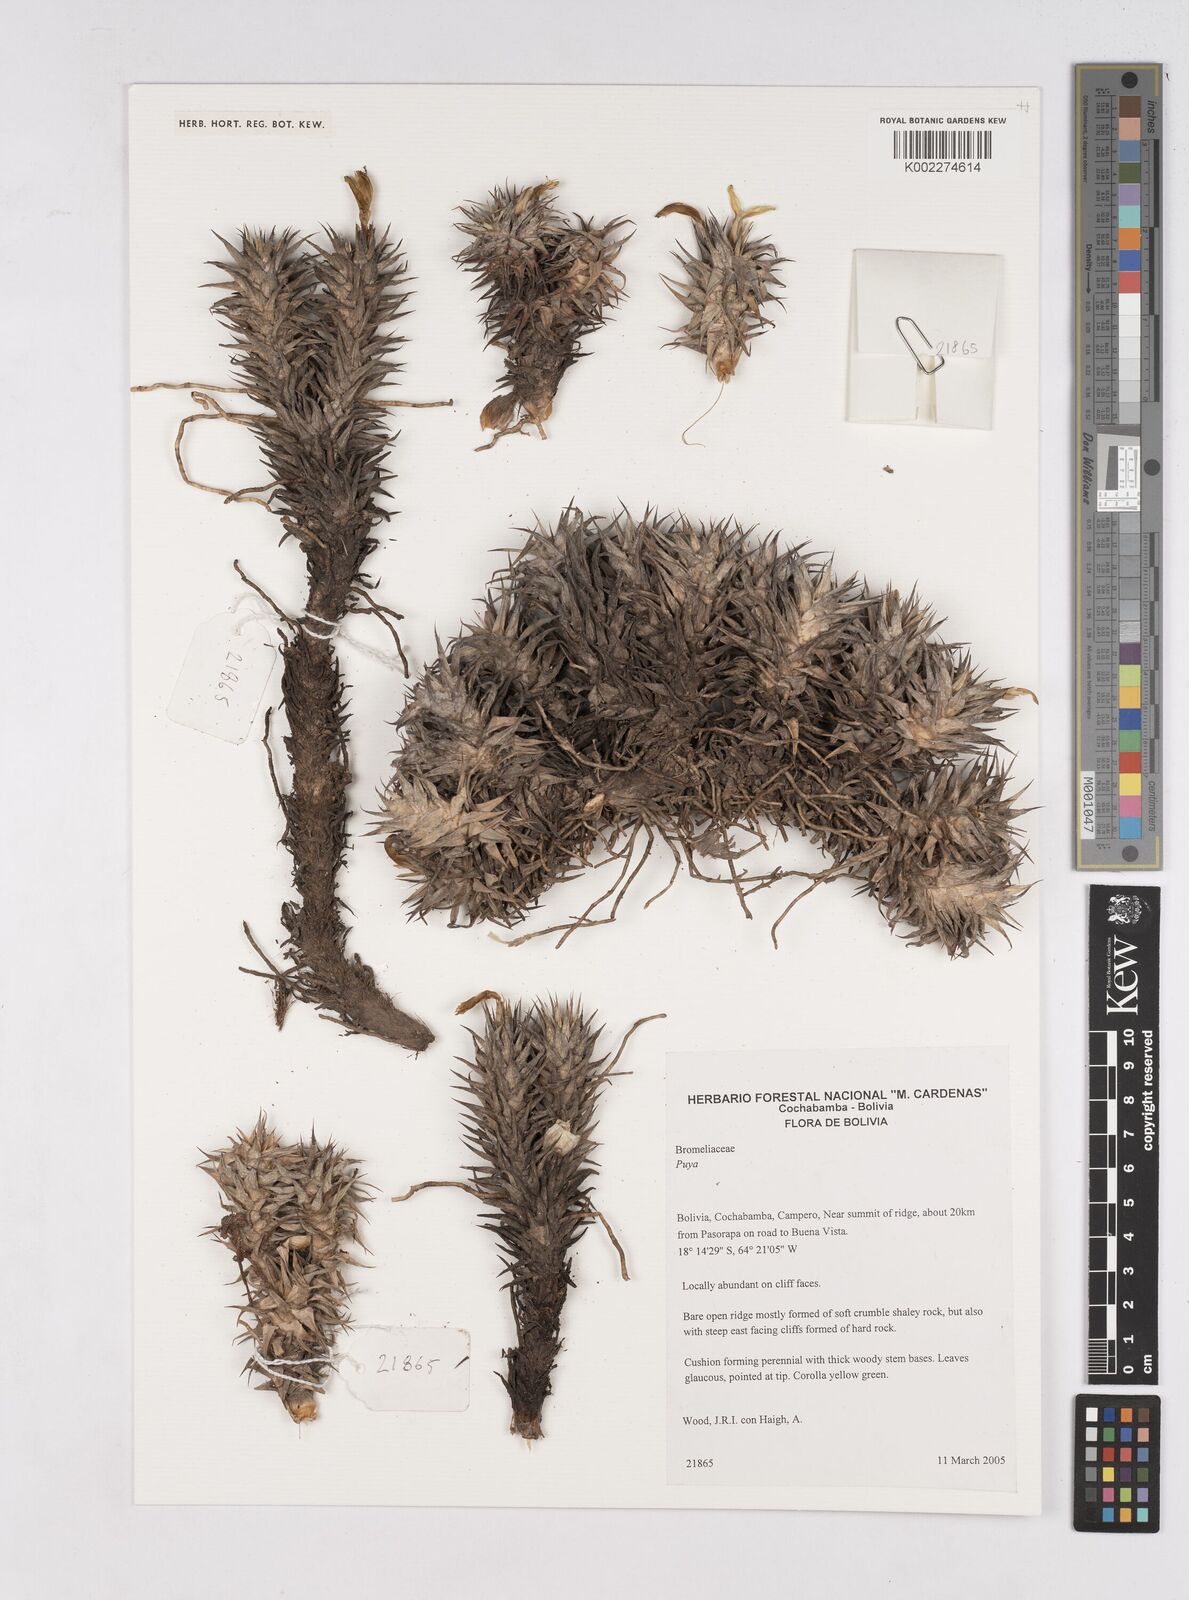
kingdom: Plantae
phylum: Tracheophyta
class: Liliopsida
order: Poales
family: Bromeliaceae
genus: Deuterocohnia
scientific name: Deuterocohnia brevifolia
